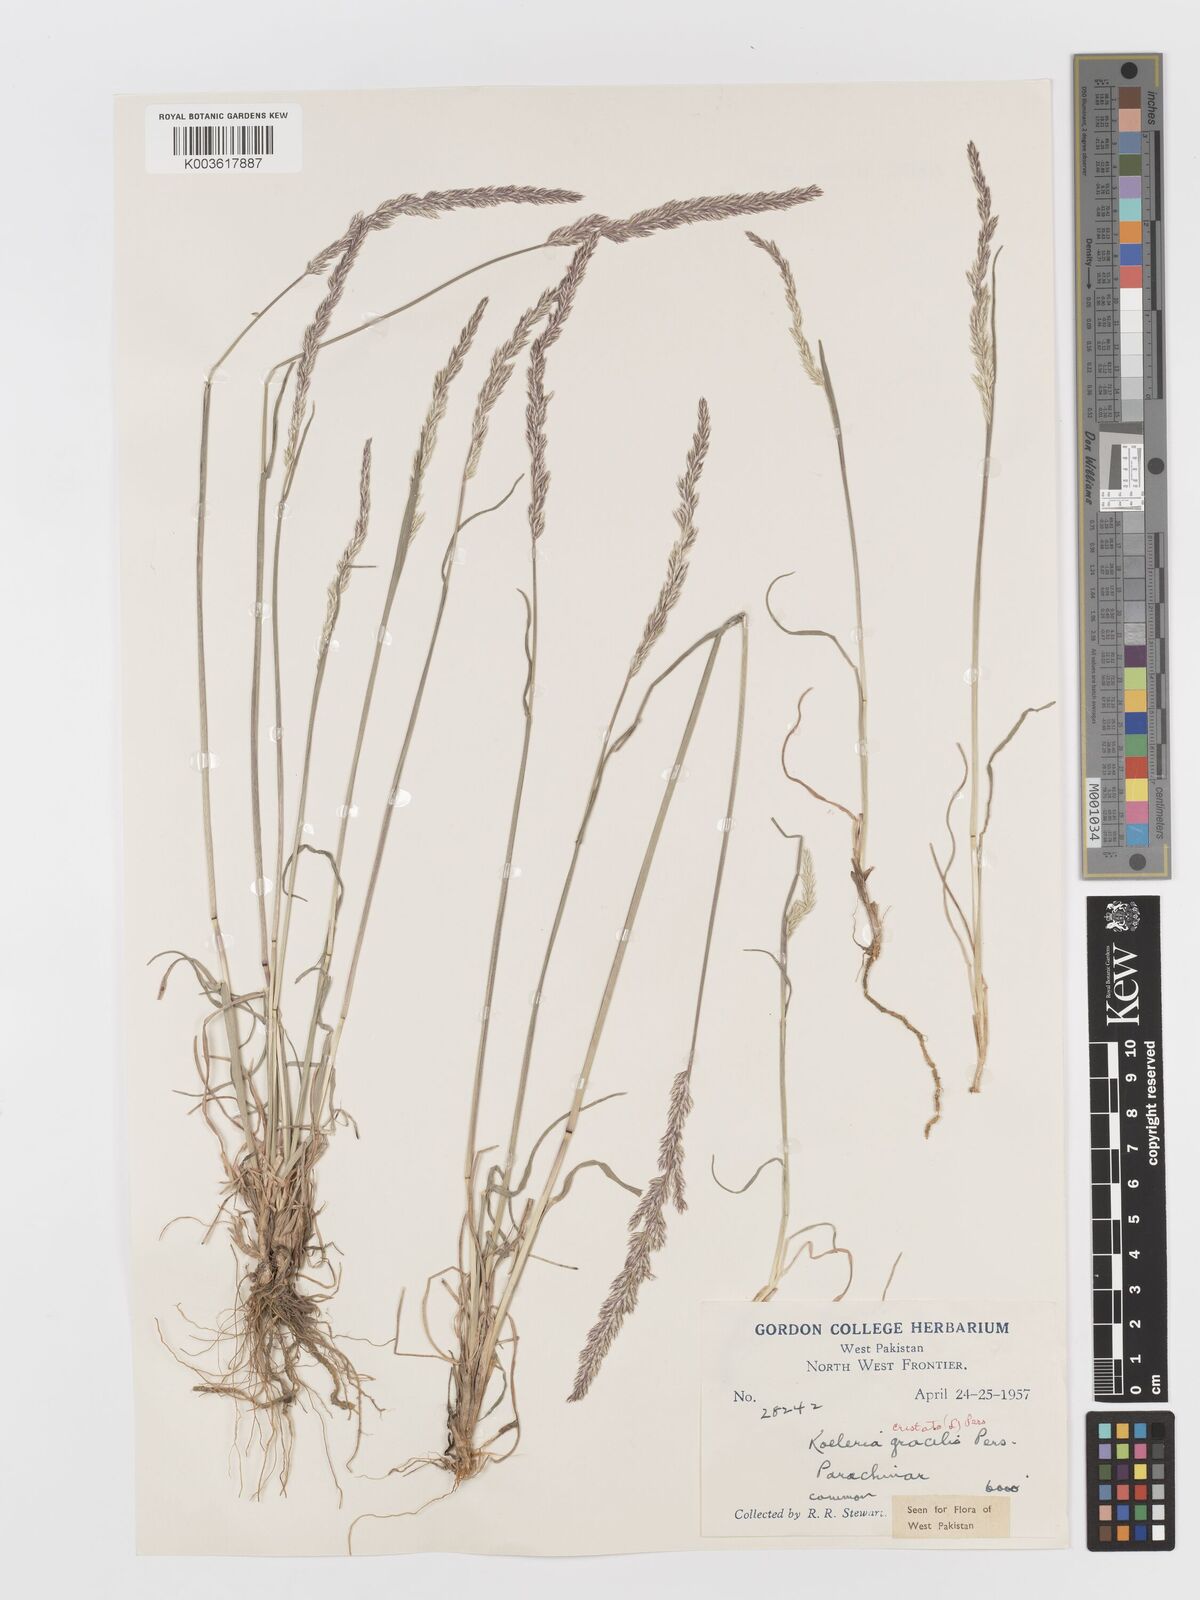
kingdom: Plantae
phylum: Tracheophyta
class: Liliopsida
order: Poales
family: Poaceae
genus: Koeleria
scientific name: Koeleria
